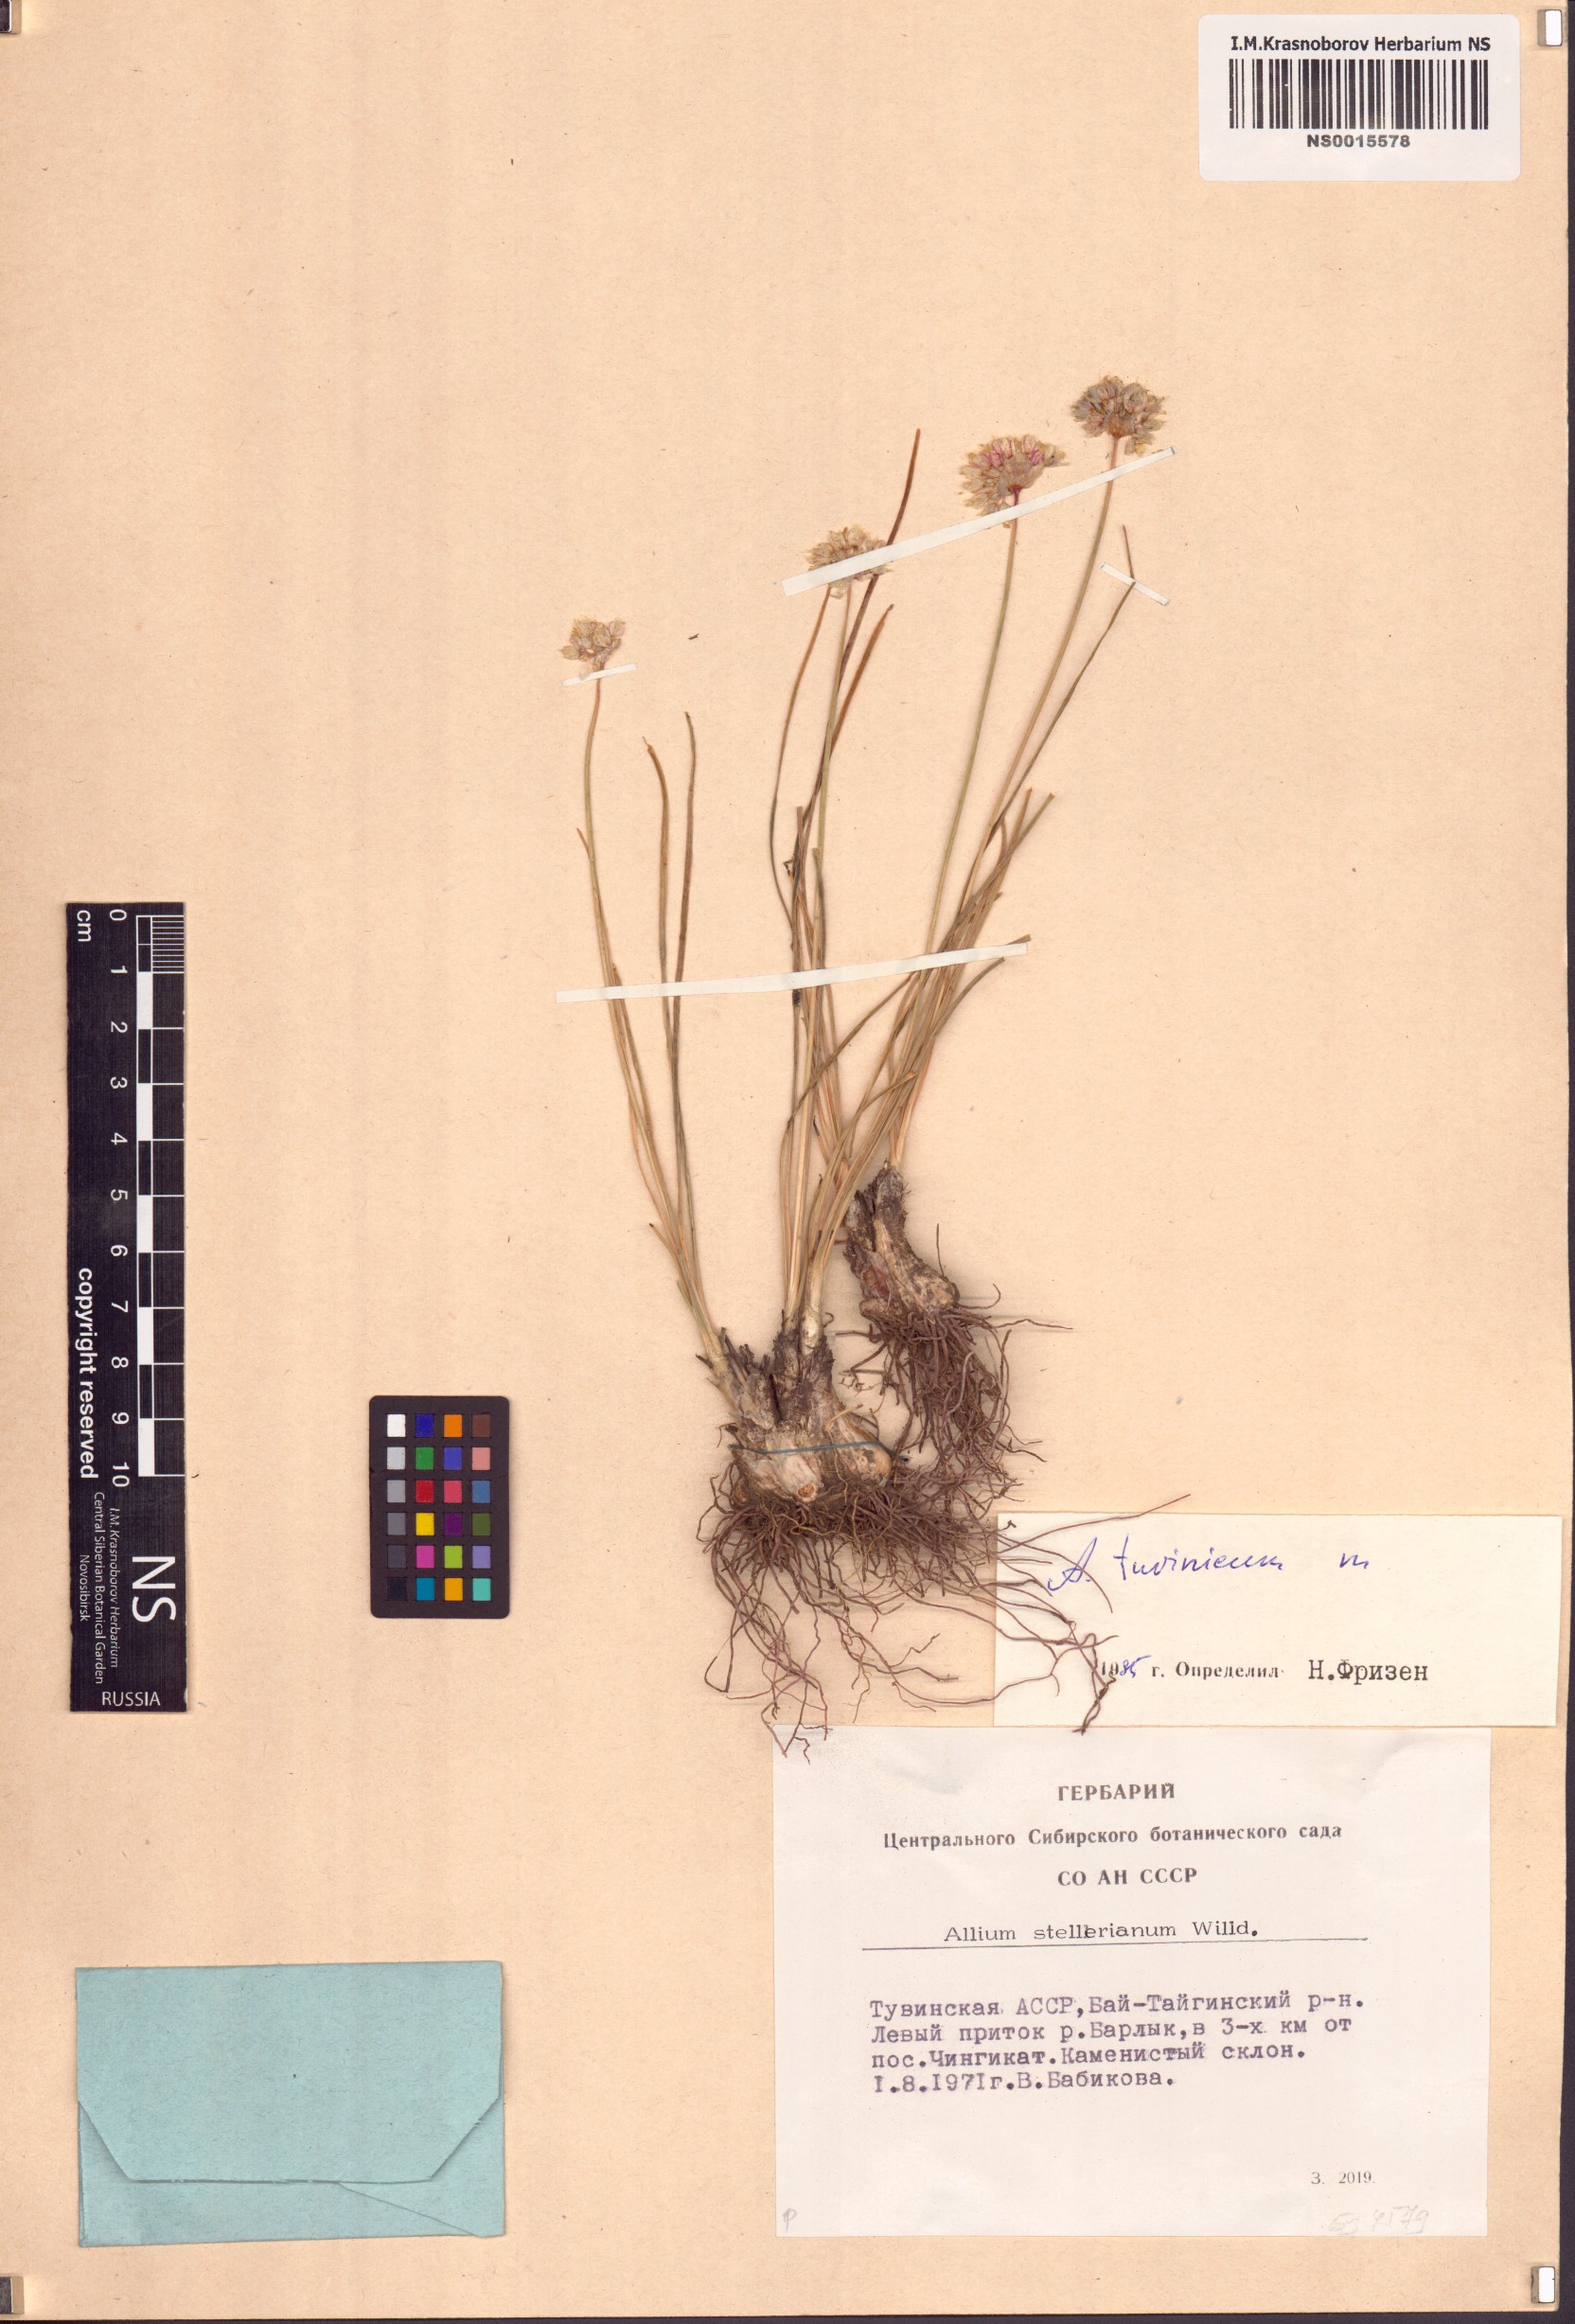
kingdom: Plantae
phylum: Tracheophyta
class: Liliopsida
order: Asparagales
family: Amaryllidaceae
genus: Allium
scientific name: Allium tuvinicum
